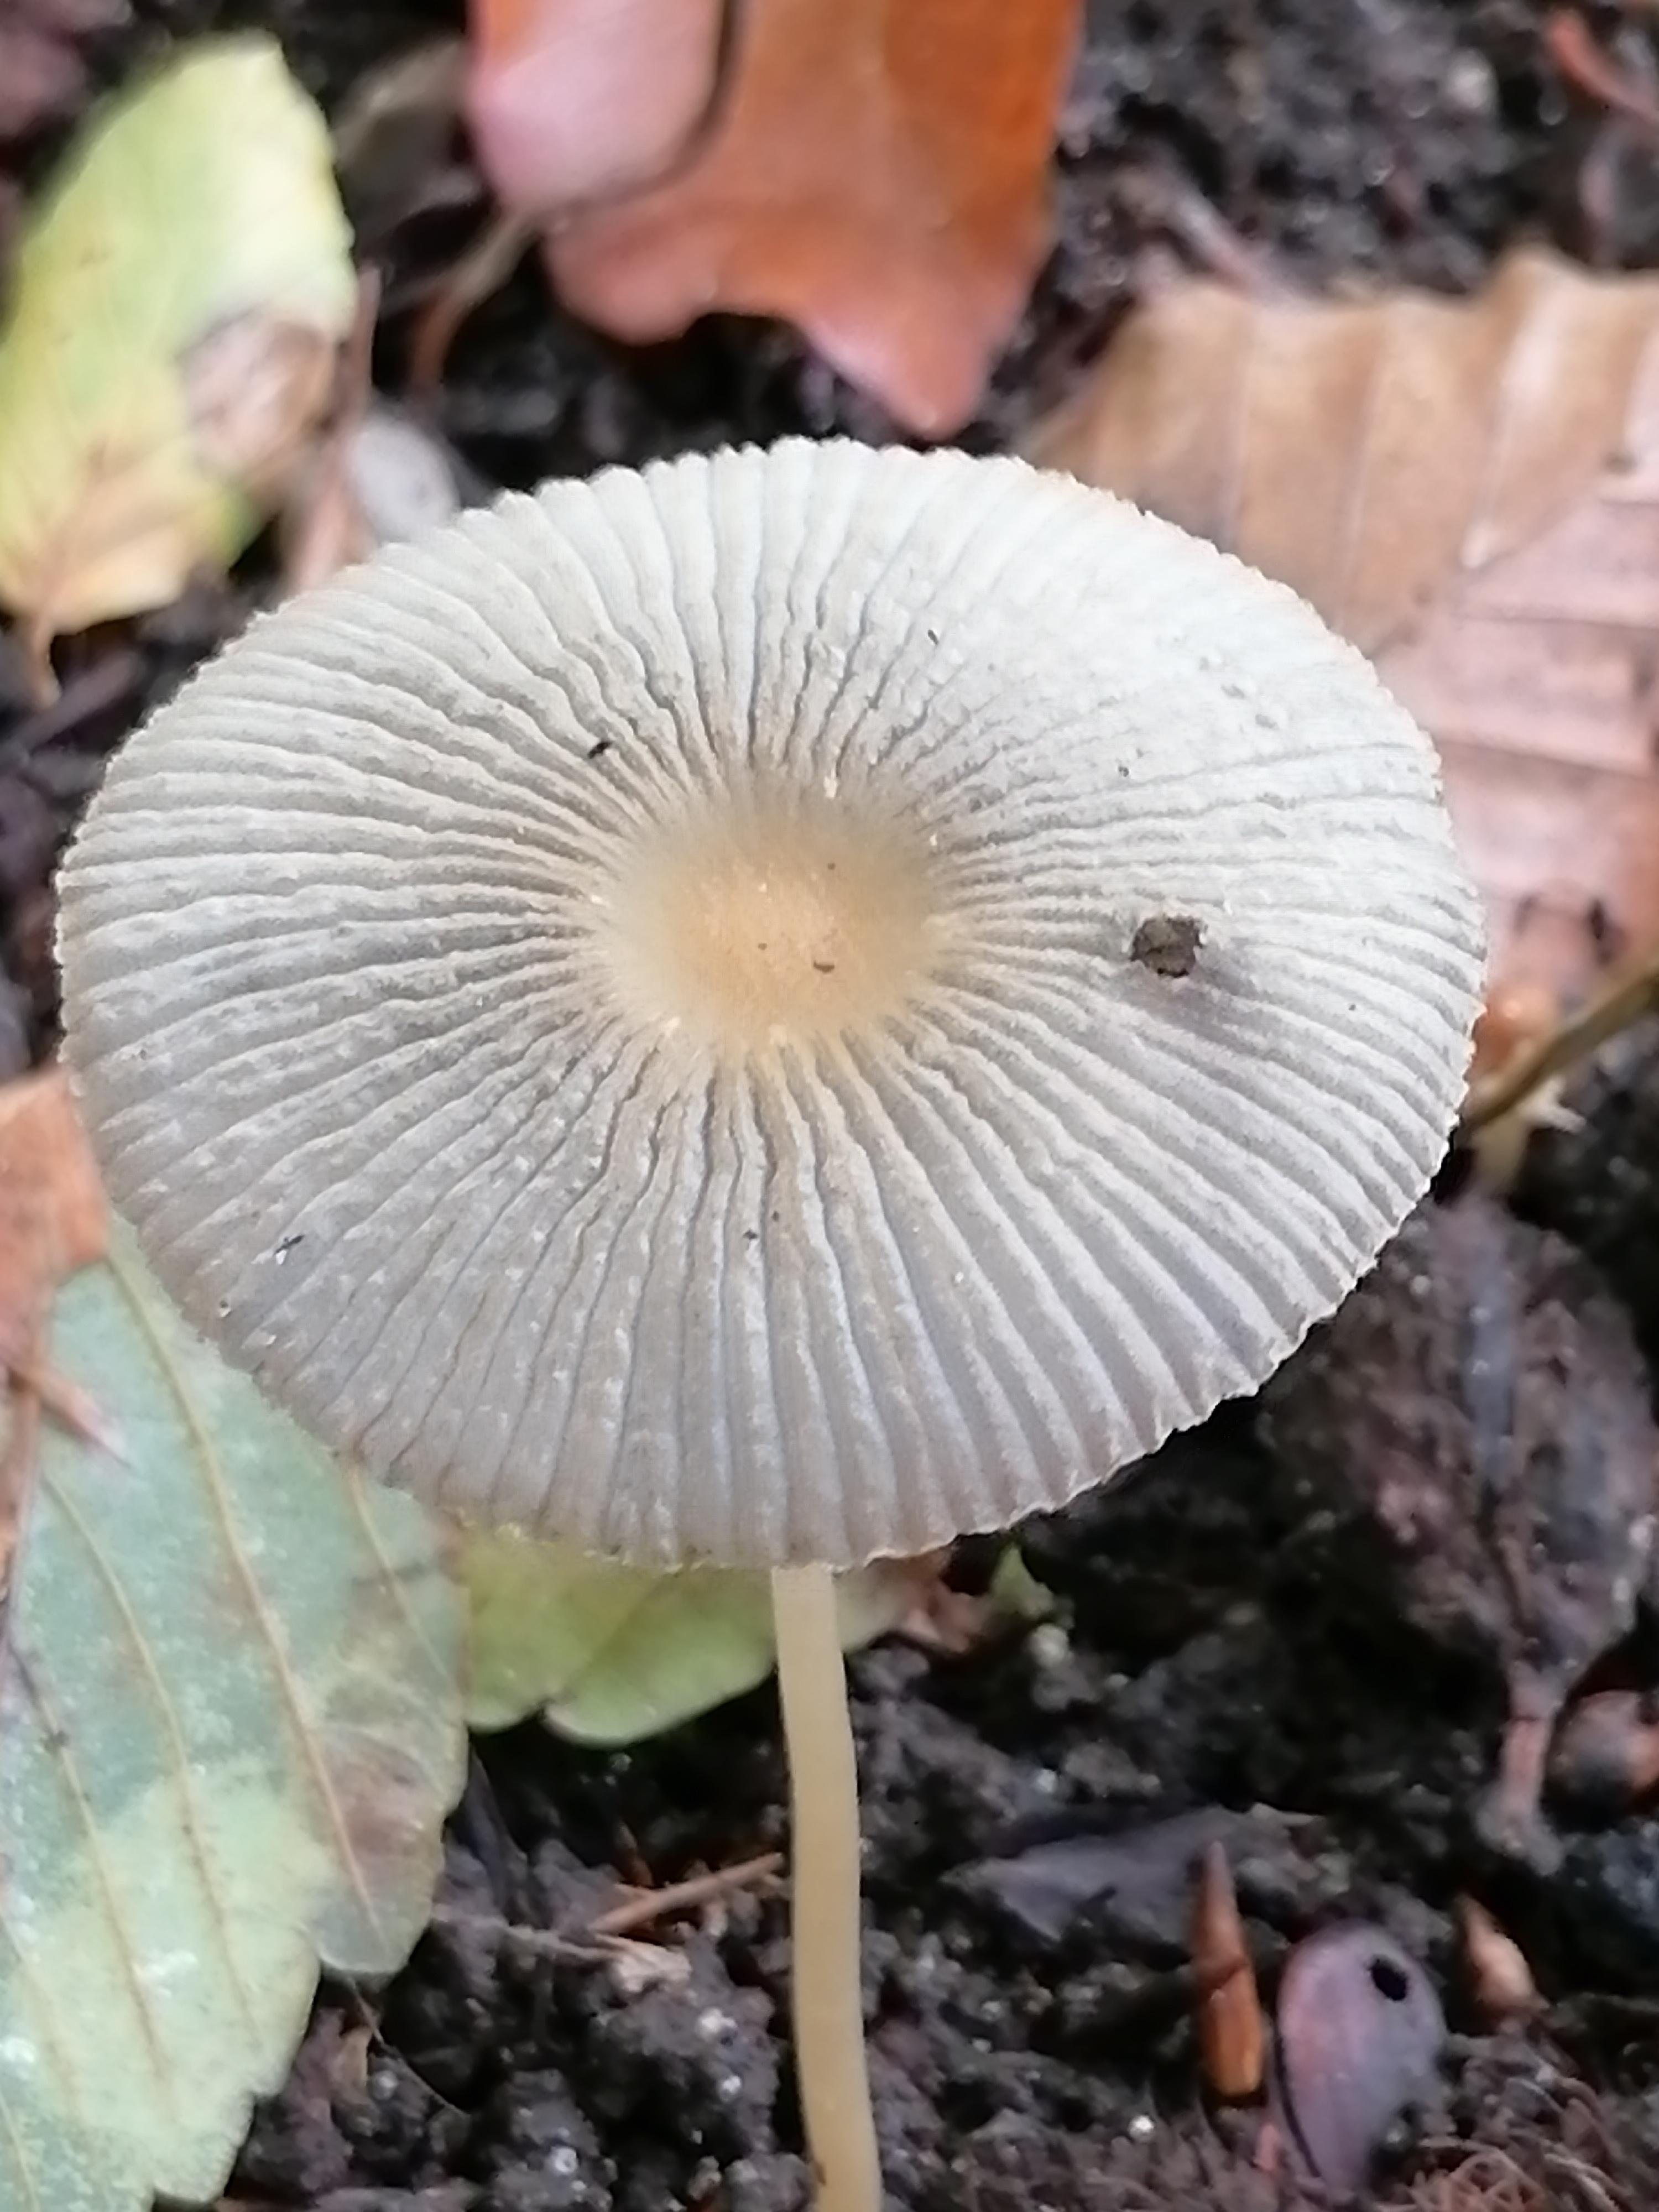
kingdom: Fungi
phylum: Basidiomycota
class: Agaricomycetes
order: Agaricales
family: Psathyrellaceae
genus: Parasola
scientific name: Parasola
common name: hjulhat
